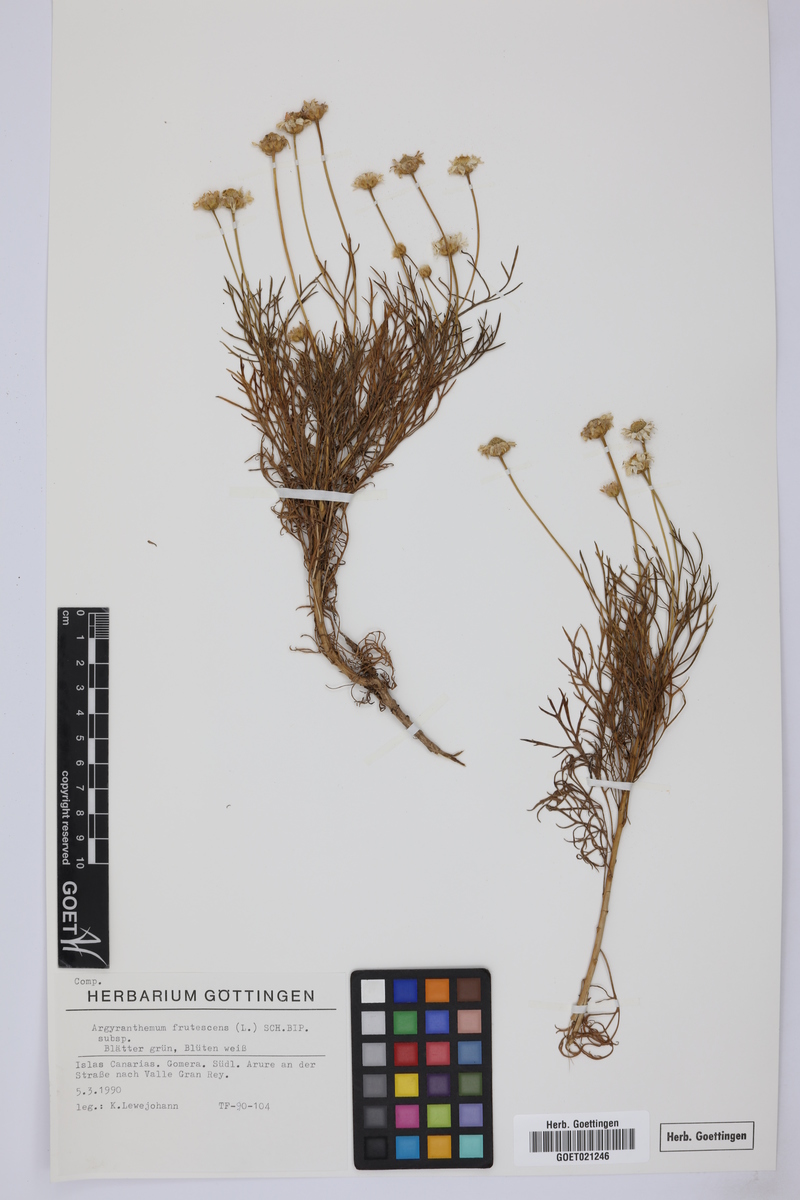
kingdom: Plantae
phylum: Tracheophyta
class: Magnoliopsida
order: Asterales
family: Asteraceae
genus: Argyranthemum
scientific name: Argyranthemum frutescens
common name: Paris daisy
